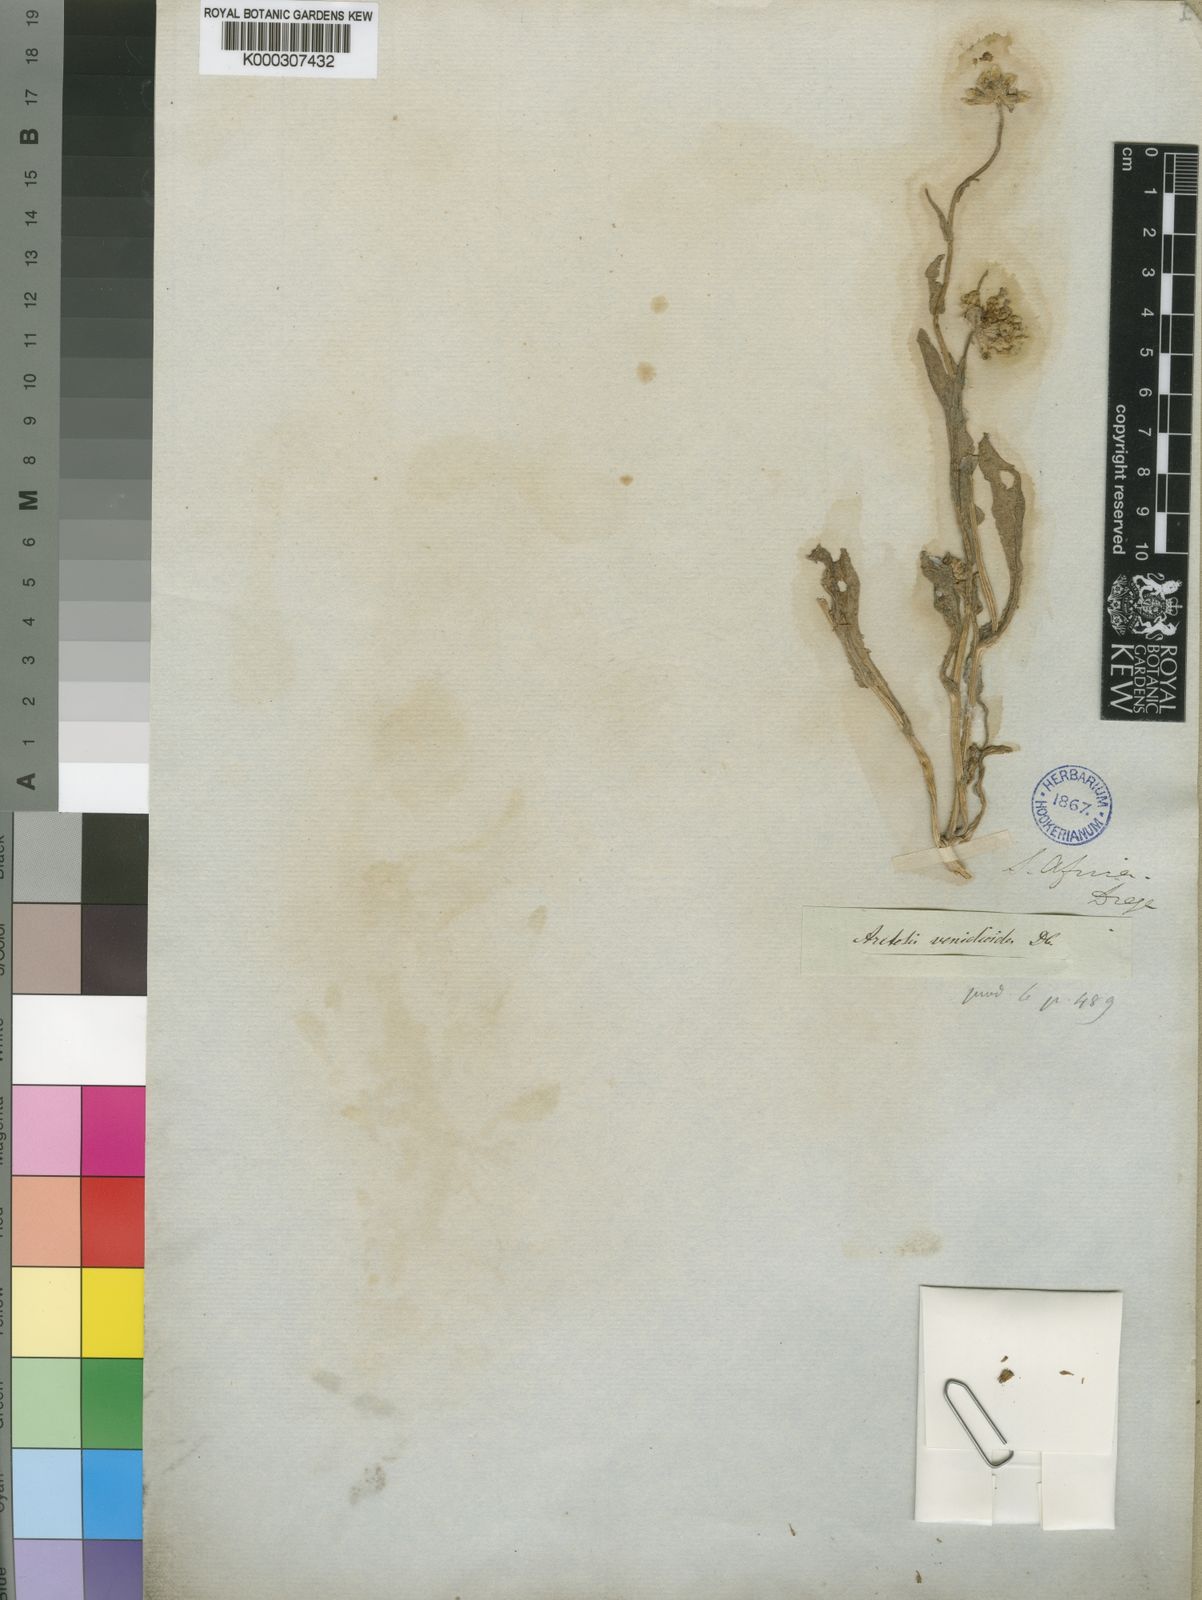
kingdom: Plantae
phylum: Tracheophyta
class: Magnoliopsida
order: Asterales
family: Asteraceae
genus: Arctotis
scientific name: Arctotis venidioides
